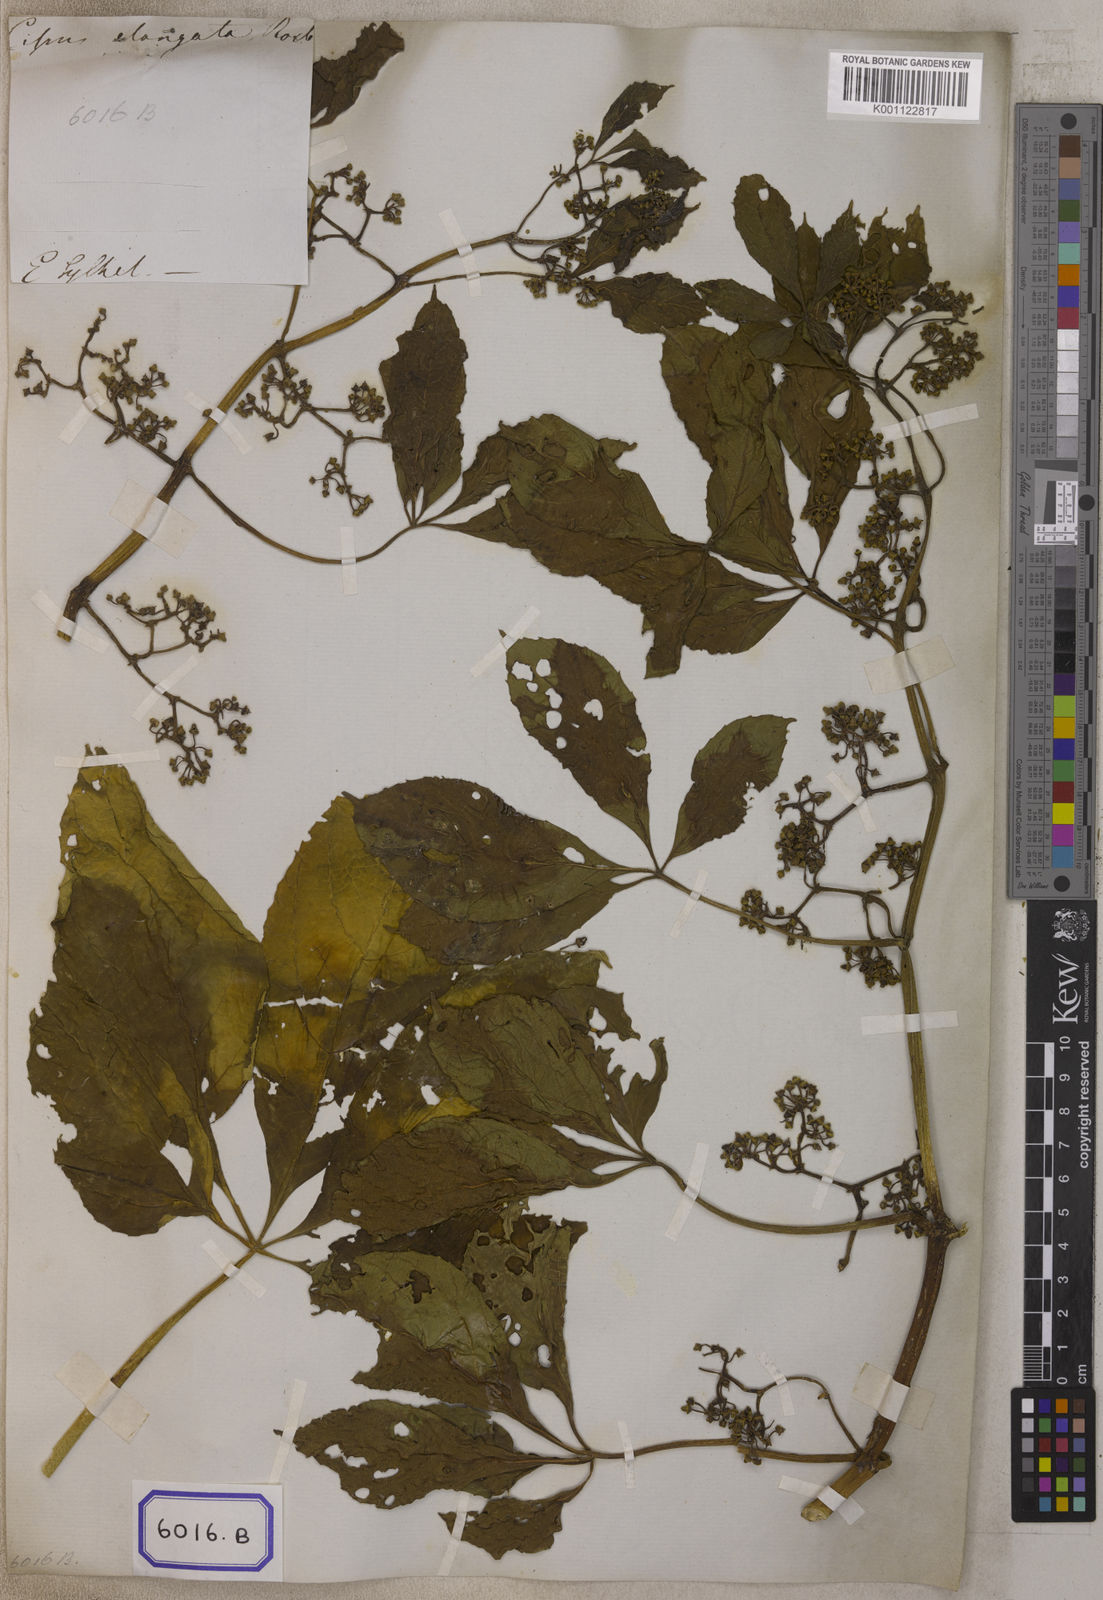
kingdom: Plantae
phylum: Tracheophyta
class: Magnoliopsida
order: Vitales
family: Vitaceae
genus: Cissus
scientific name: Cissus elongata
